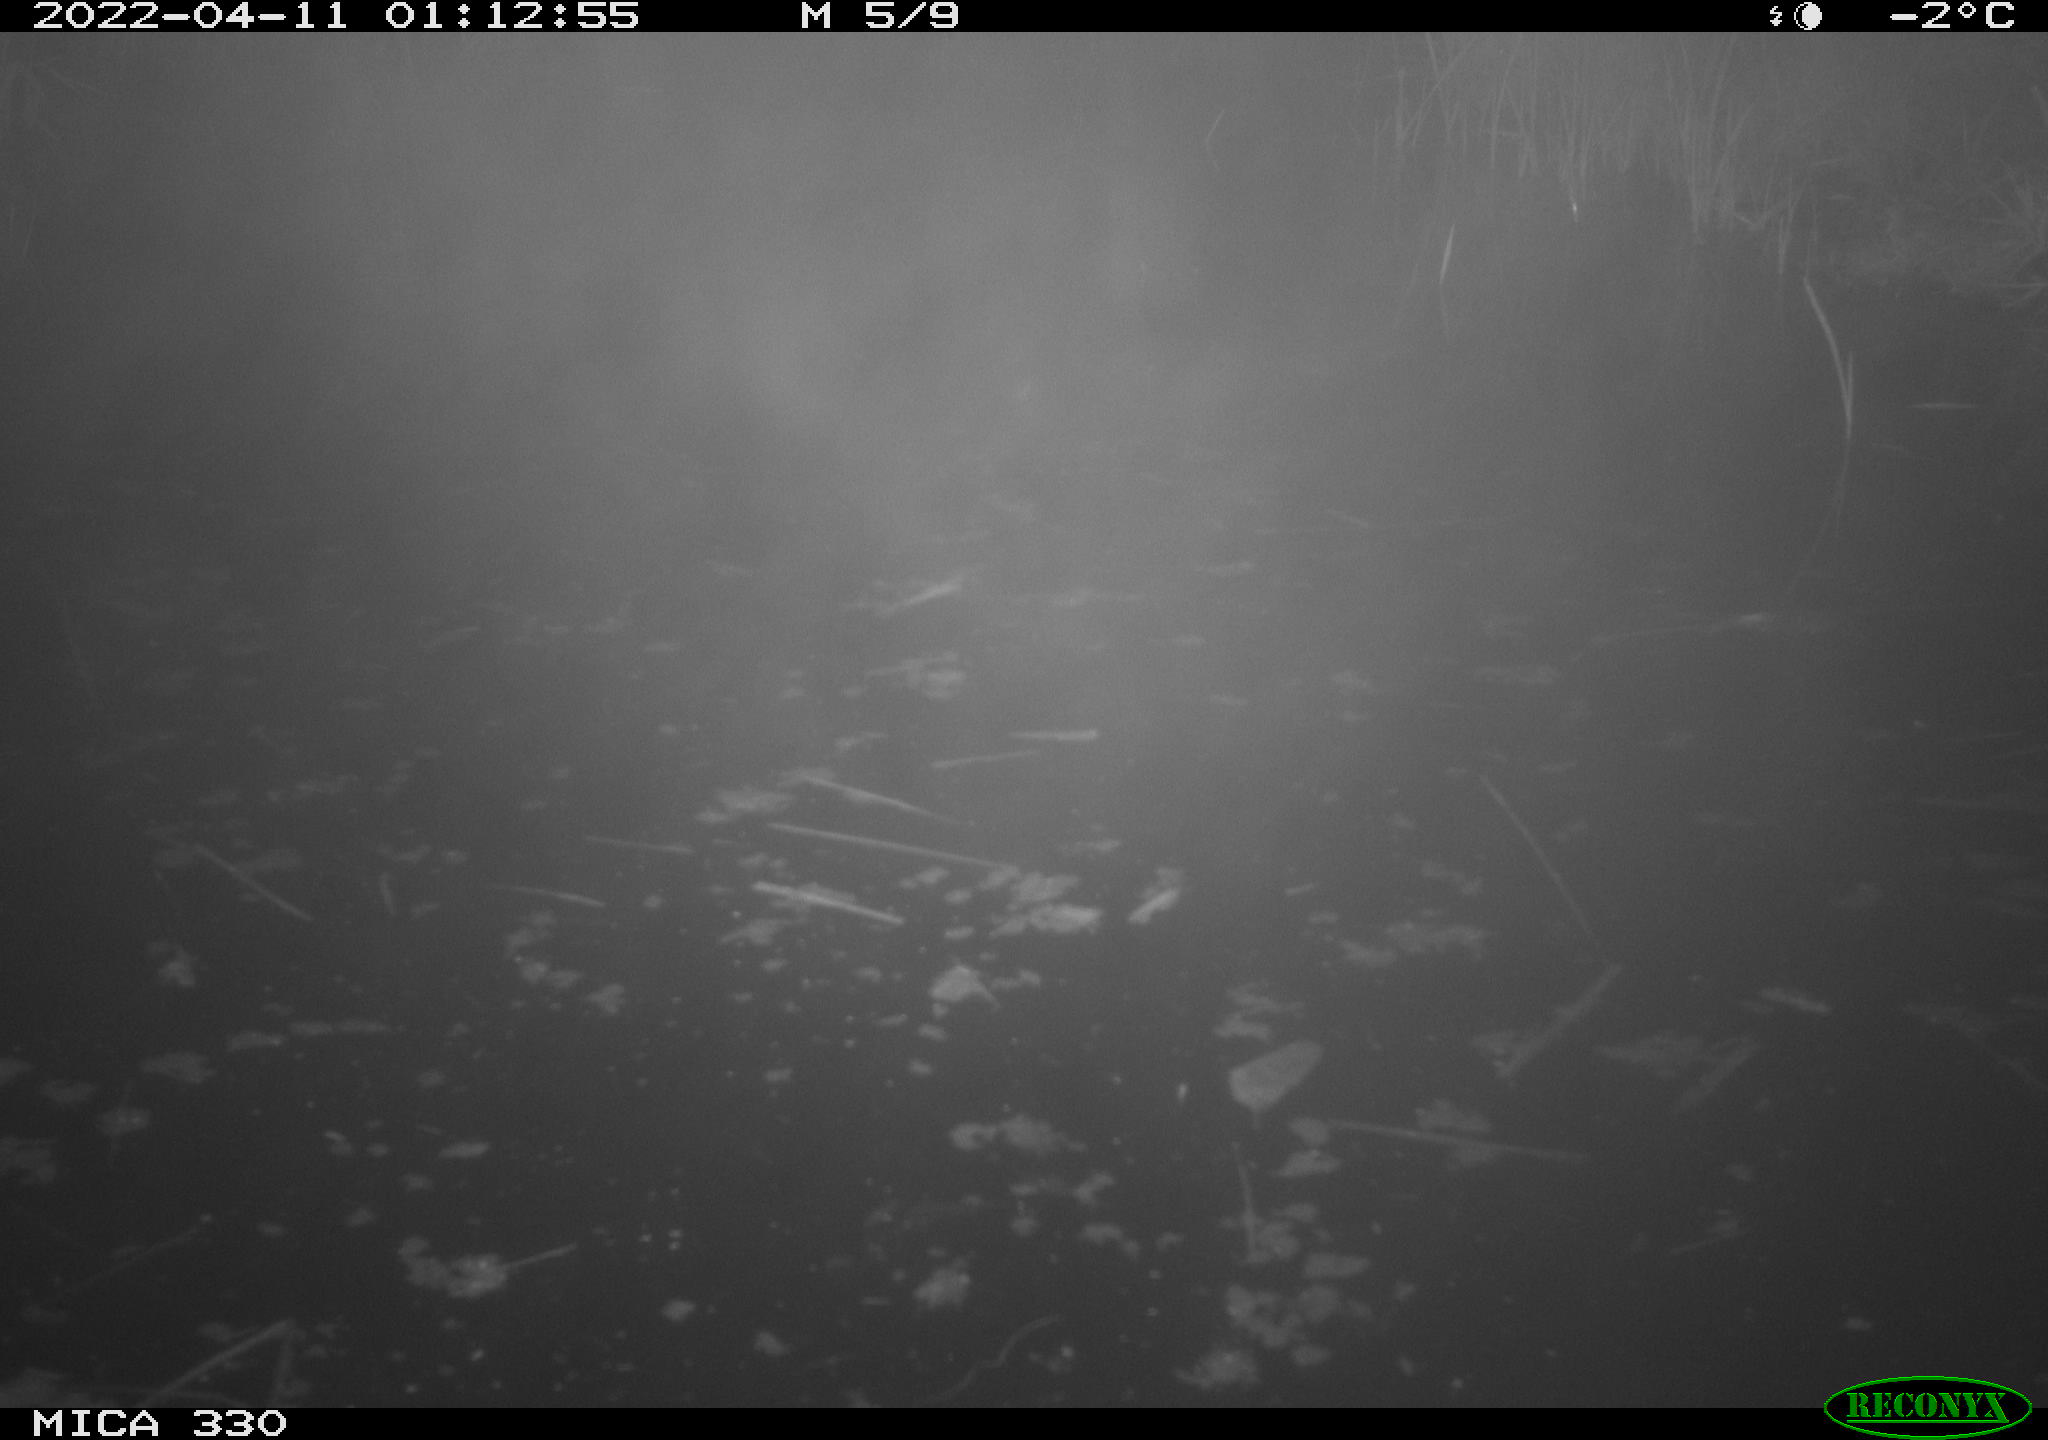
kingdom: Animalia
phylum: Chordata
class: Aves
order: Anseriformes
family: Anatidae
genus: Anas
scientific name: Anas platyrhynchos
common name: Mallard
